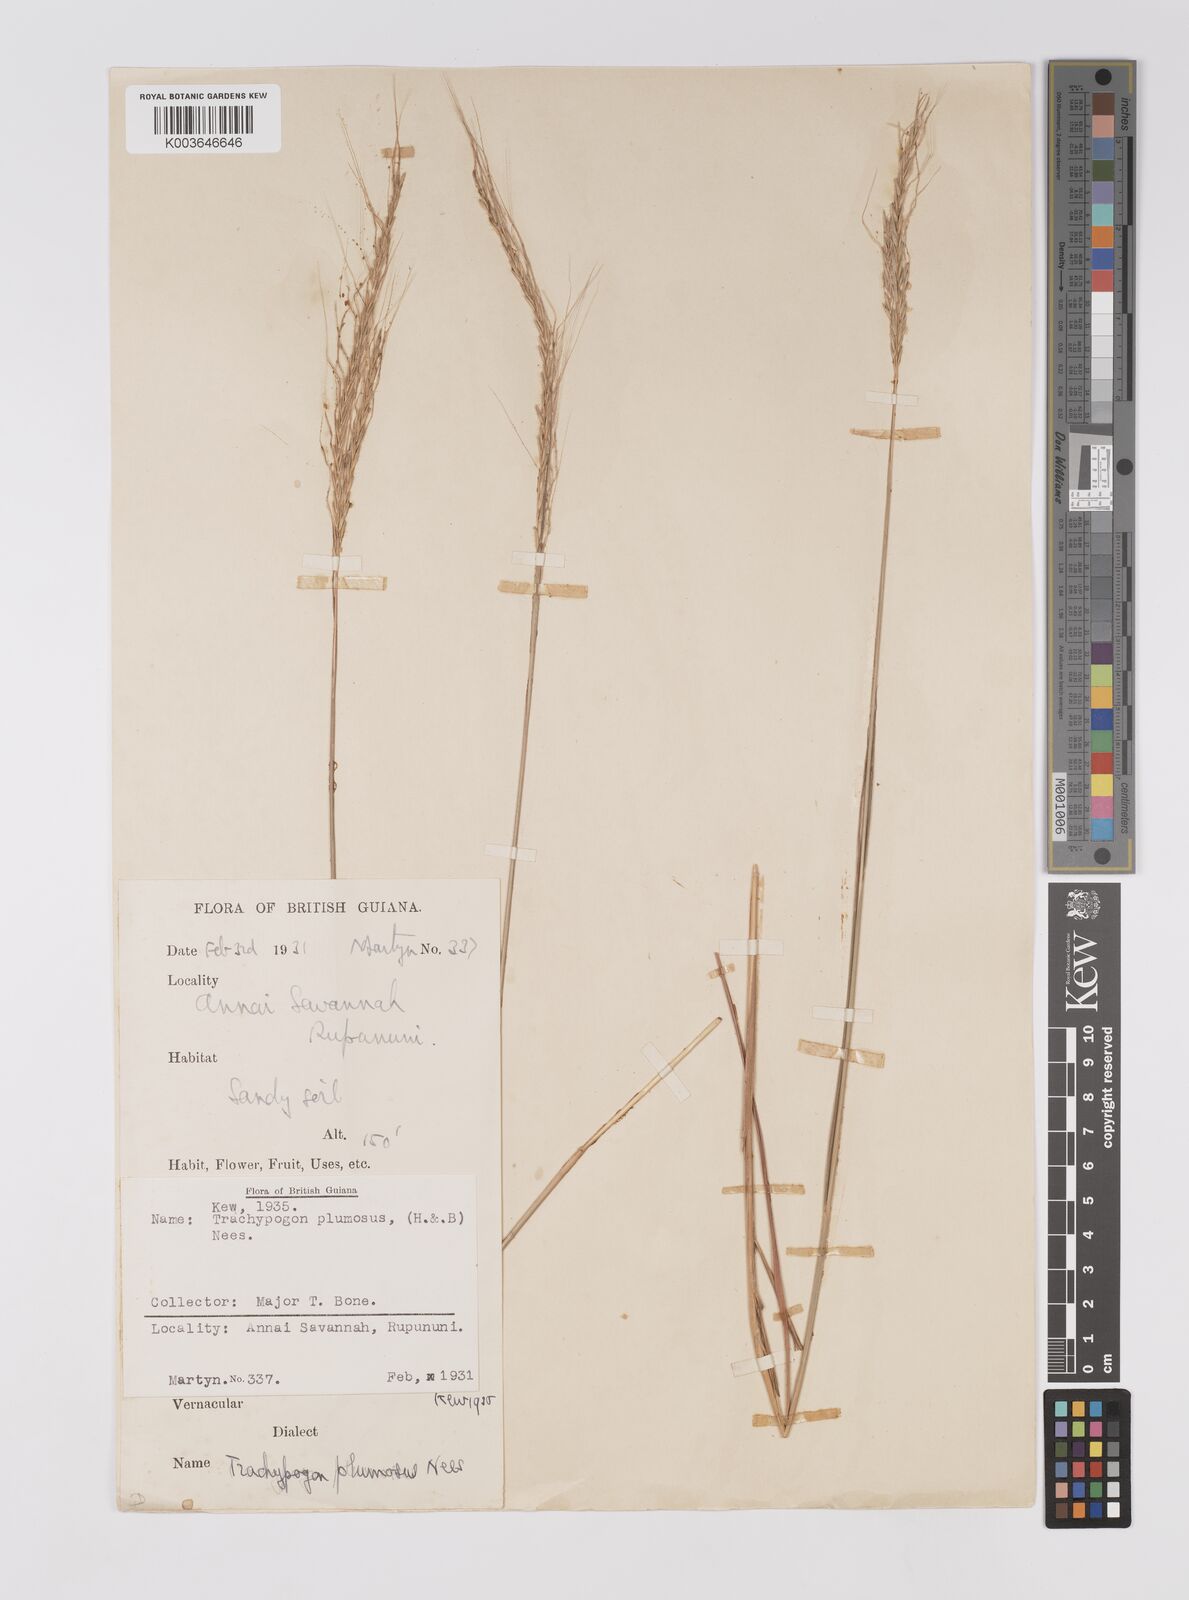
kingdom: Plantae
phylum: Tracheophyta
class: Liliopsida
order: Poales
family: Poaceae
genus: Trachypogon
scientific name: Trachypogon spicatus
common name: Crinkle-awn
